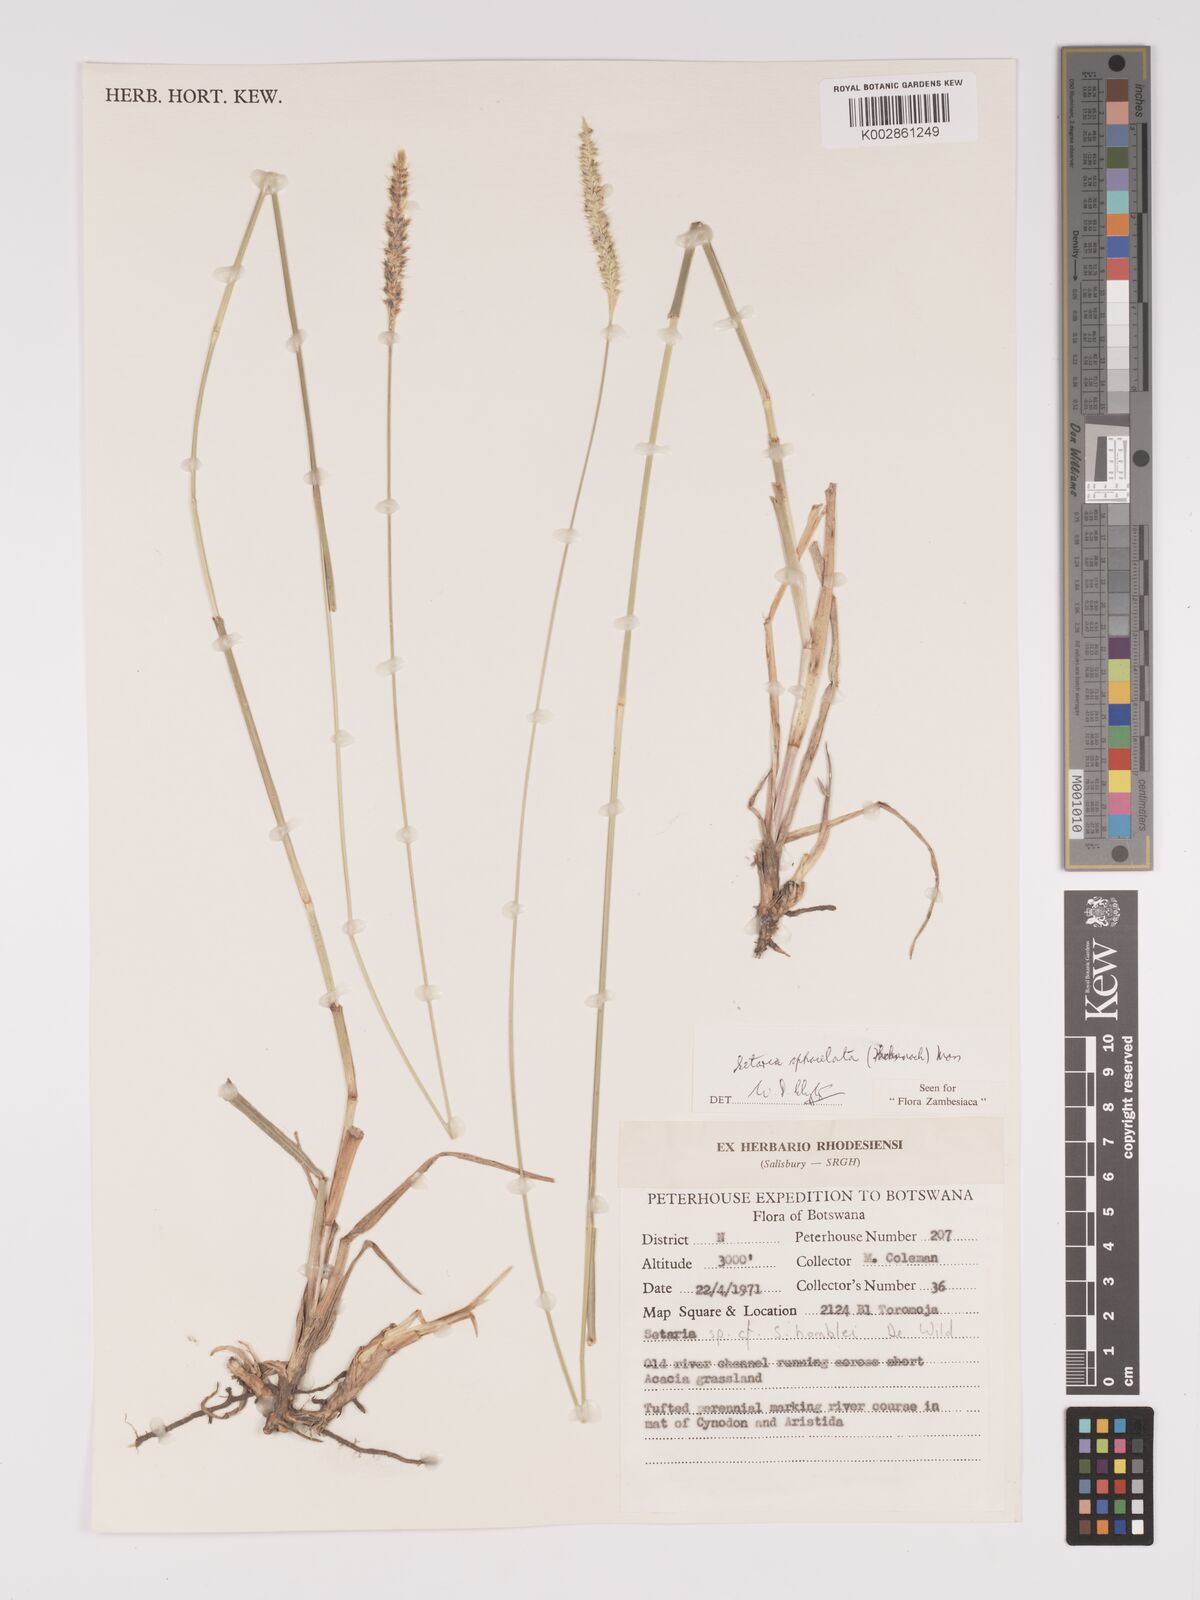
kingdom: Plantae
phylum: Tracheophyta
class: Liliopsida
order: Poales
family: Poaceae
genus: Setaria
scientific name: Setaria sphacelata
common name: African bristlegrass
